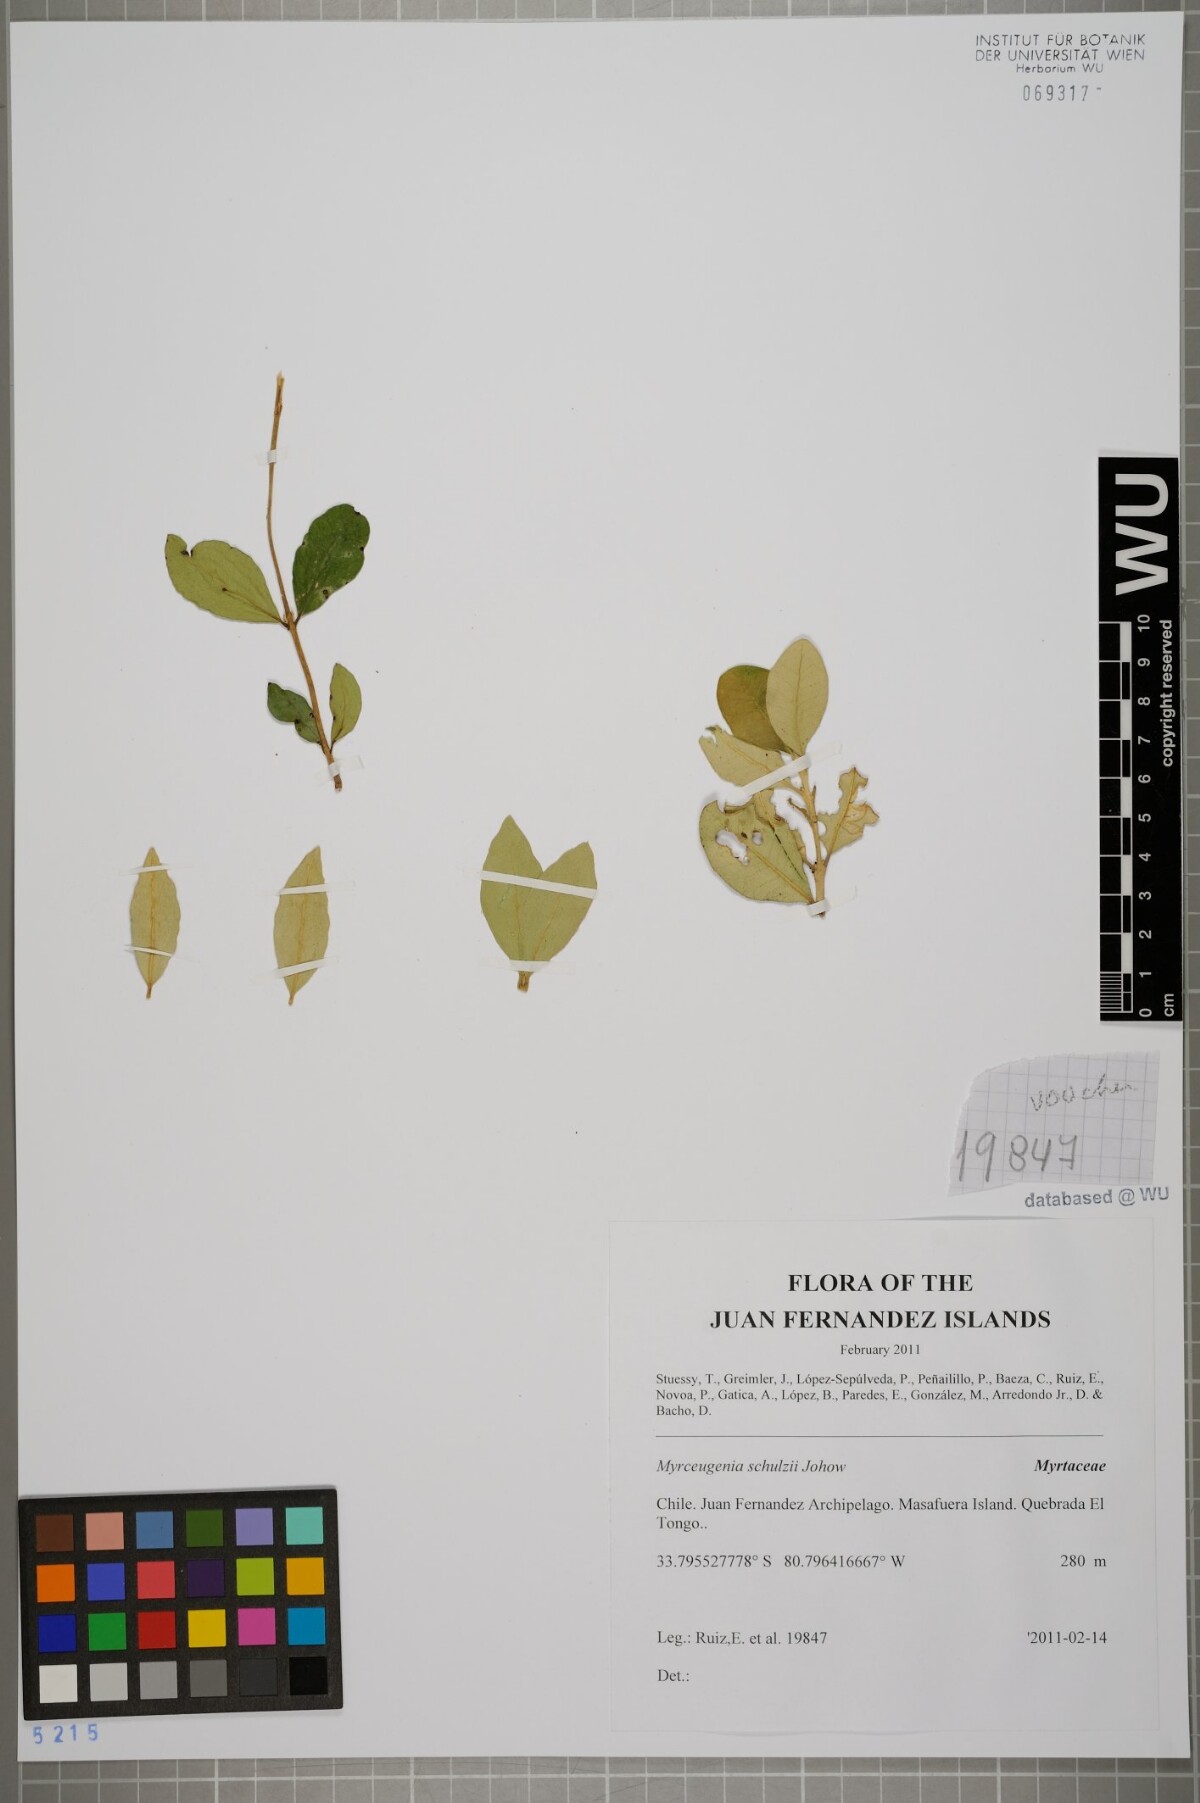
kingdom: Plantae
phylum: Tracheophyta
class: Magnoliopsida
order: Myrtales
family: Myrtaceae
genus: Myrceugenia
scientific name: Myrceugenia schulzei
